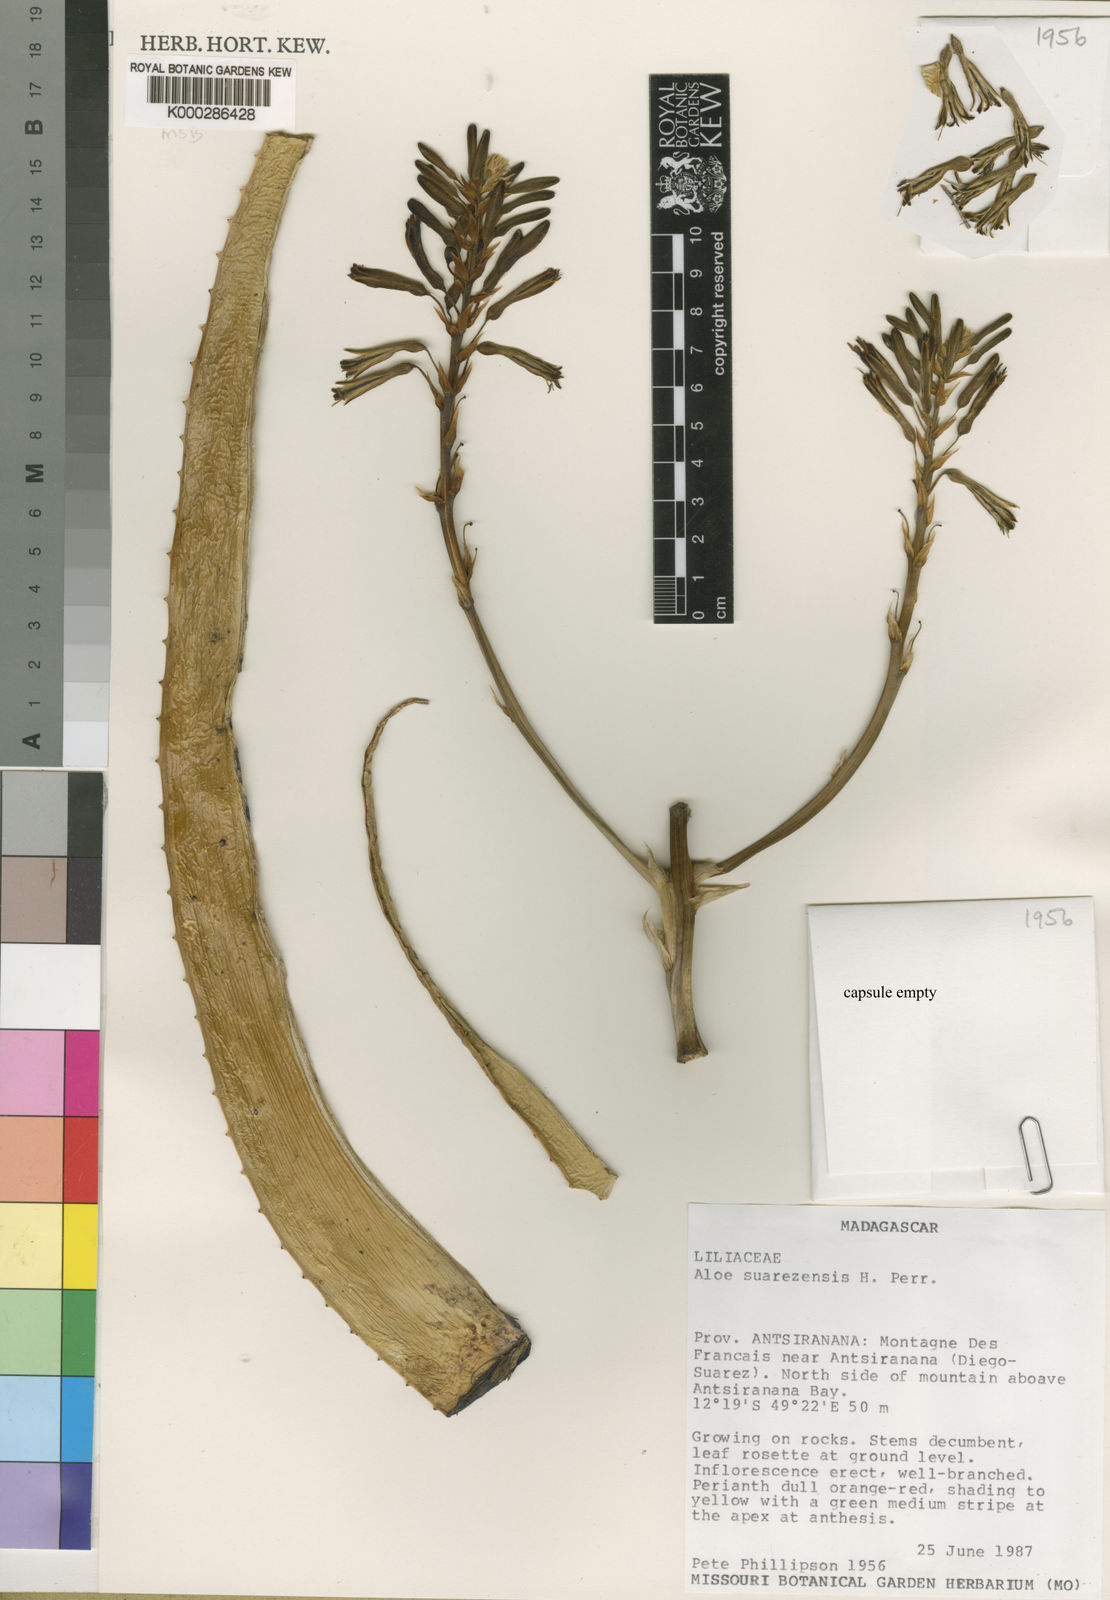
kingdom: Plantae
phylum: Tracheophyta
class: Liliopsida
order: Asparagales
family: Asphodelaceae
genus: Aloe
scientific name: Aloe
